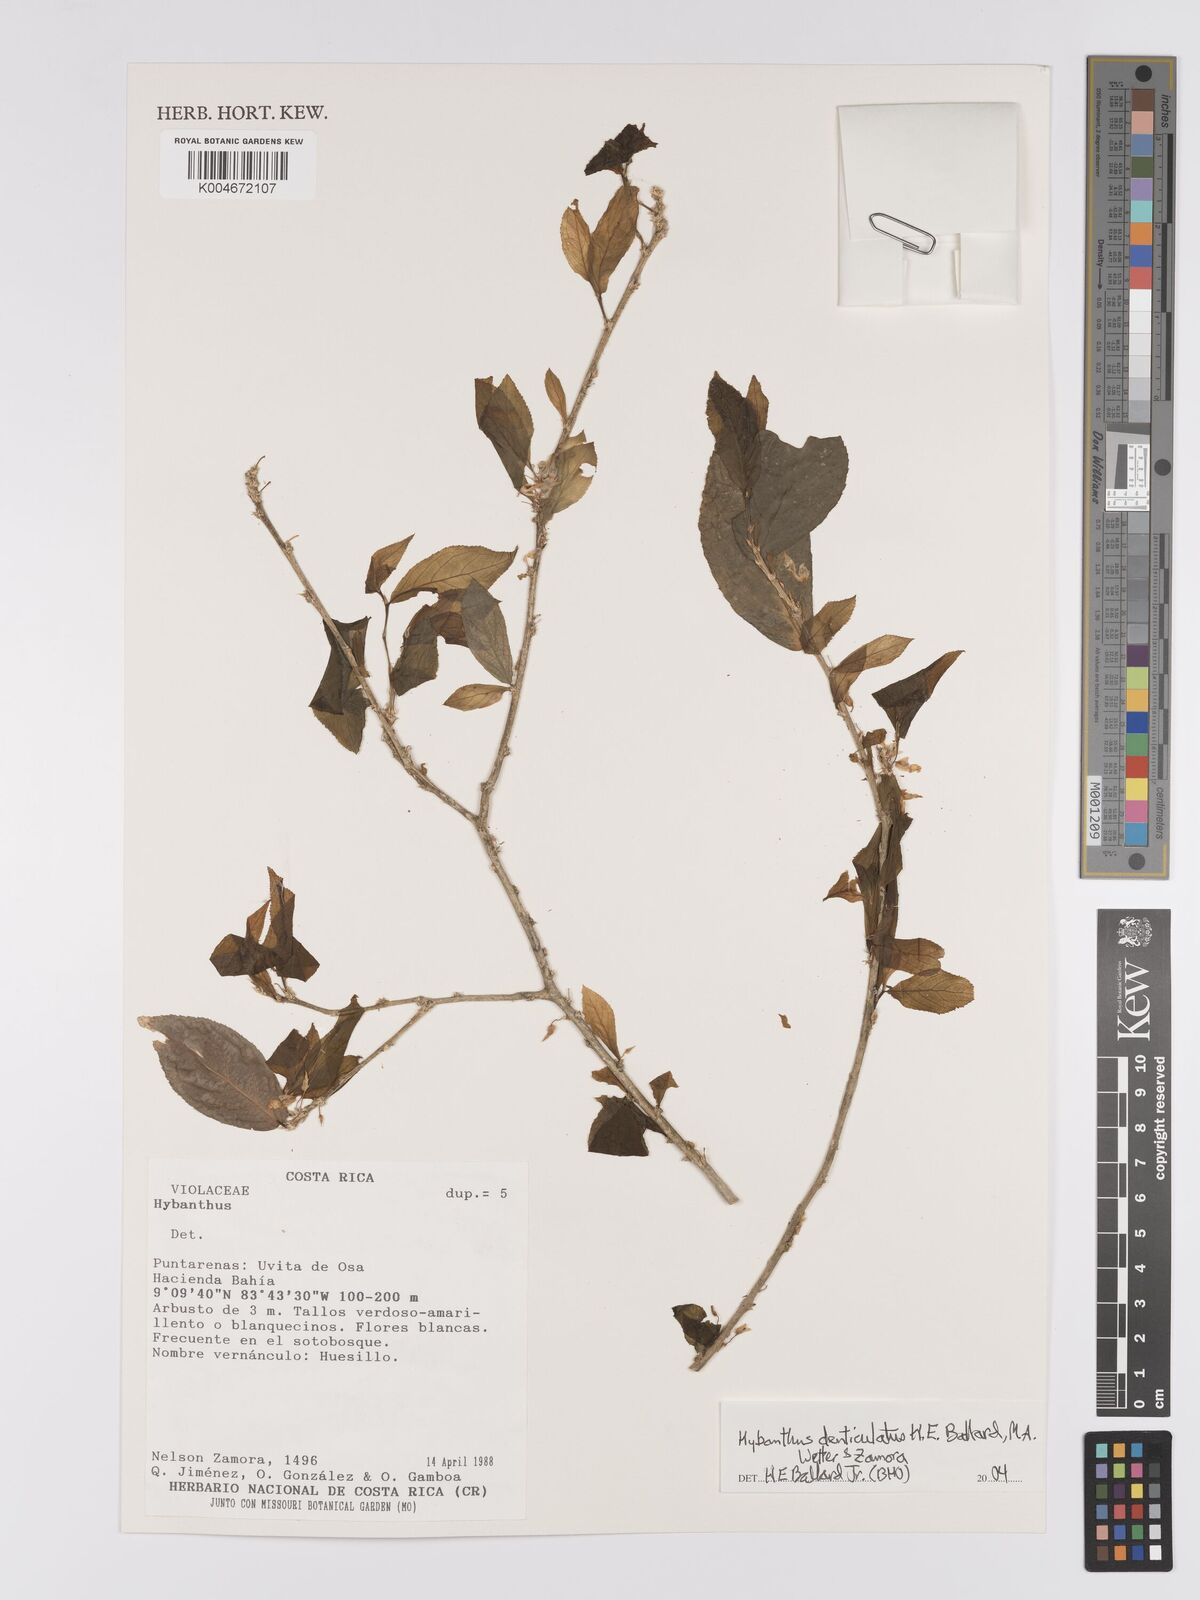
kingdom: Plantae
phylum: Tracheophyta
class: Magnoliopsida
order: Malpighiales
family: Violaceae
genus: Hybanthus
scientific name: Hybanthus denticulatus
